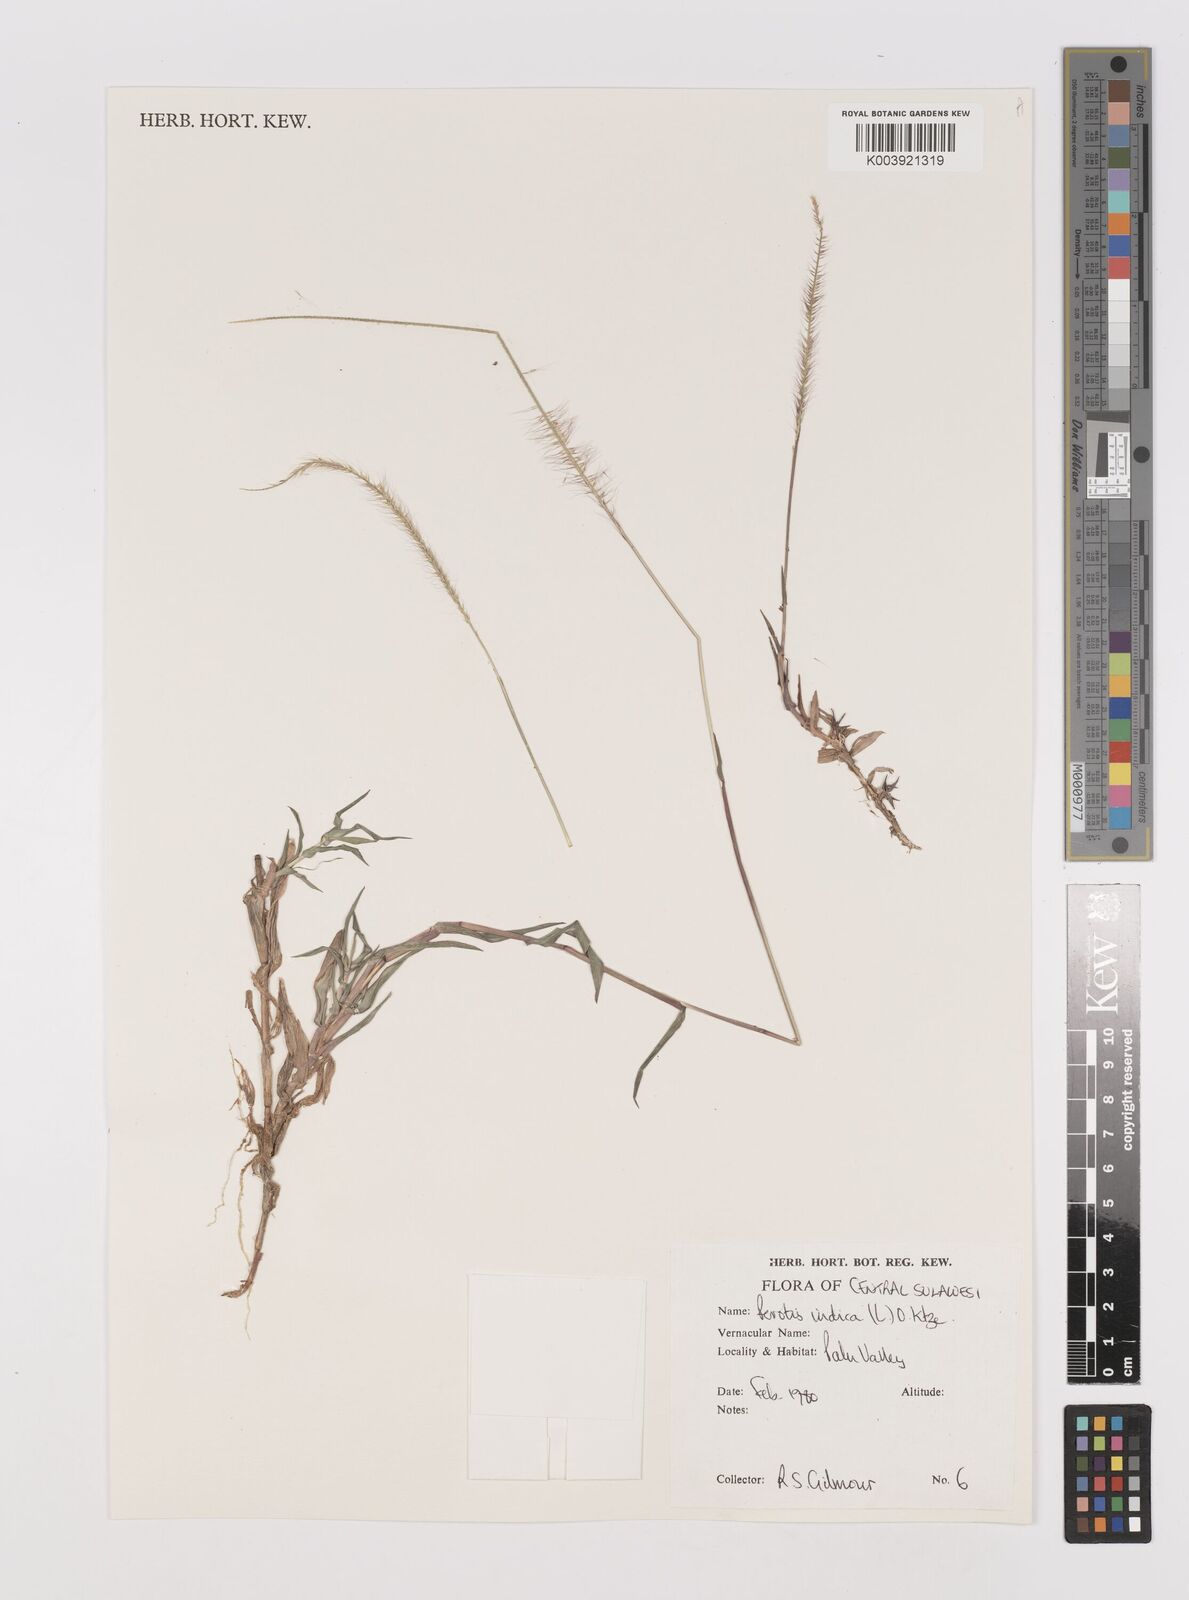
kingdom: Plantae
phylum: Tracheophyta
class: Liliopsida
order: Poales
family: Poaceae
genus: Perotis
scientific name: Perotis indica
